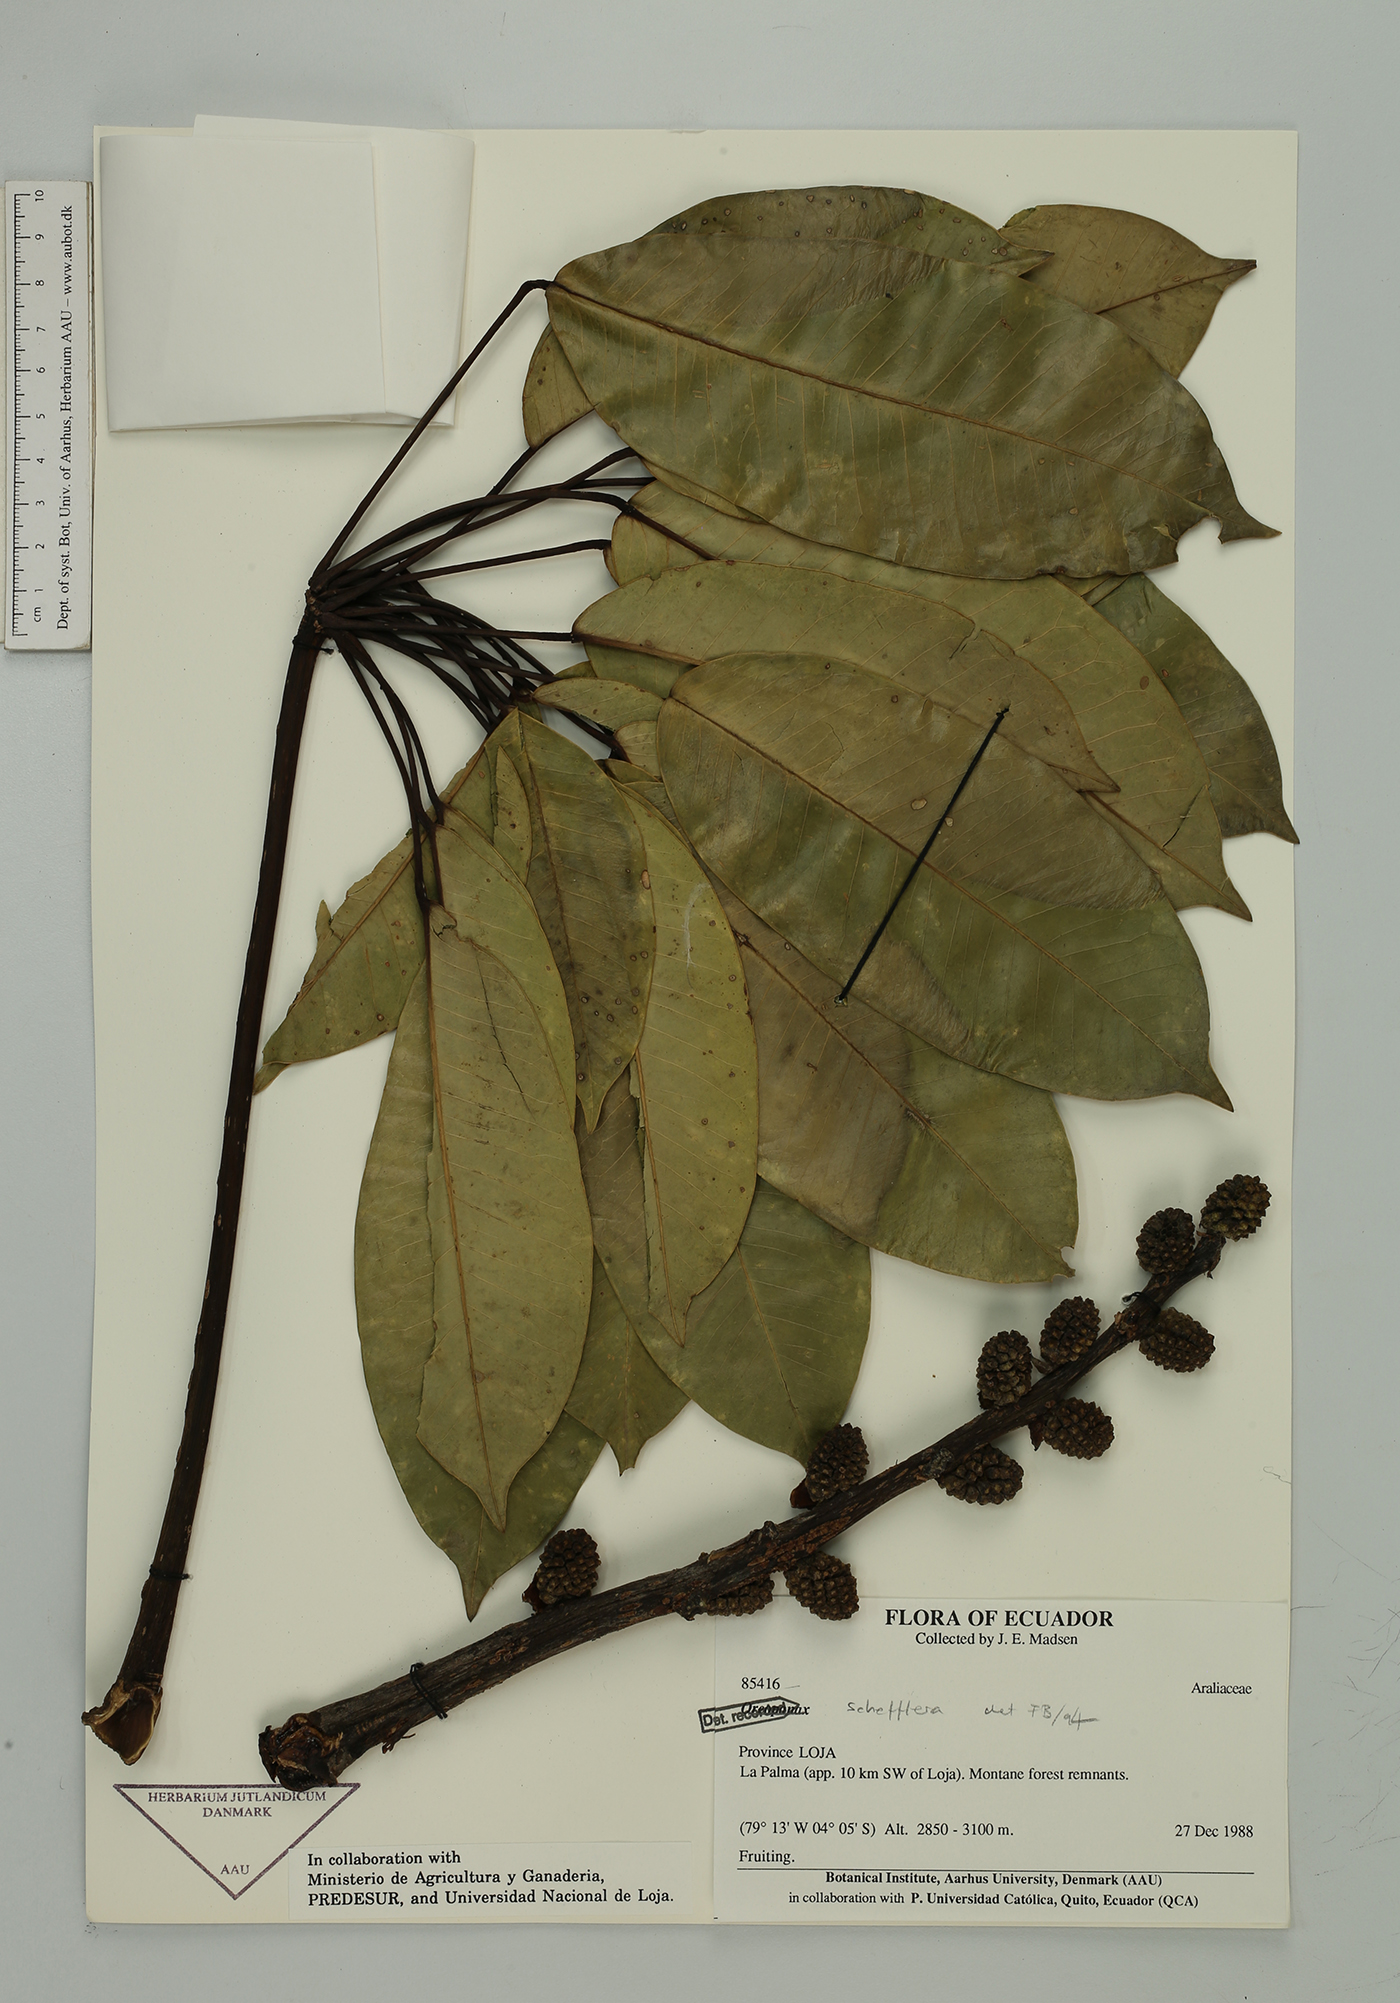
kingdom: Plantae
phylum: Tracheophyta
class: Magnoliopsida
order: Apiales
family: Araliaceae
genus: Sciodaphyllum
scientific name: Sciodaphyllum
